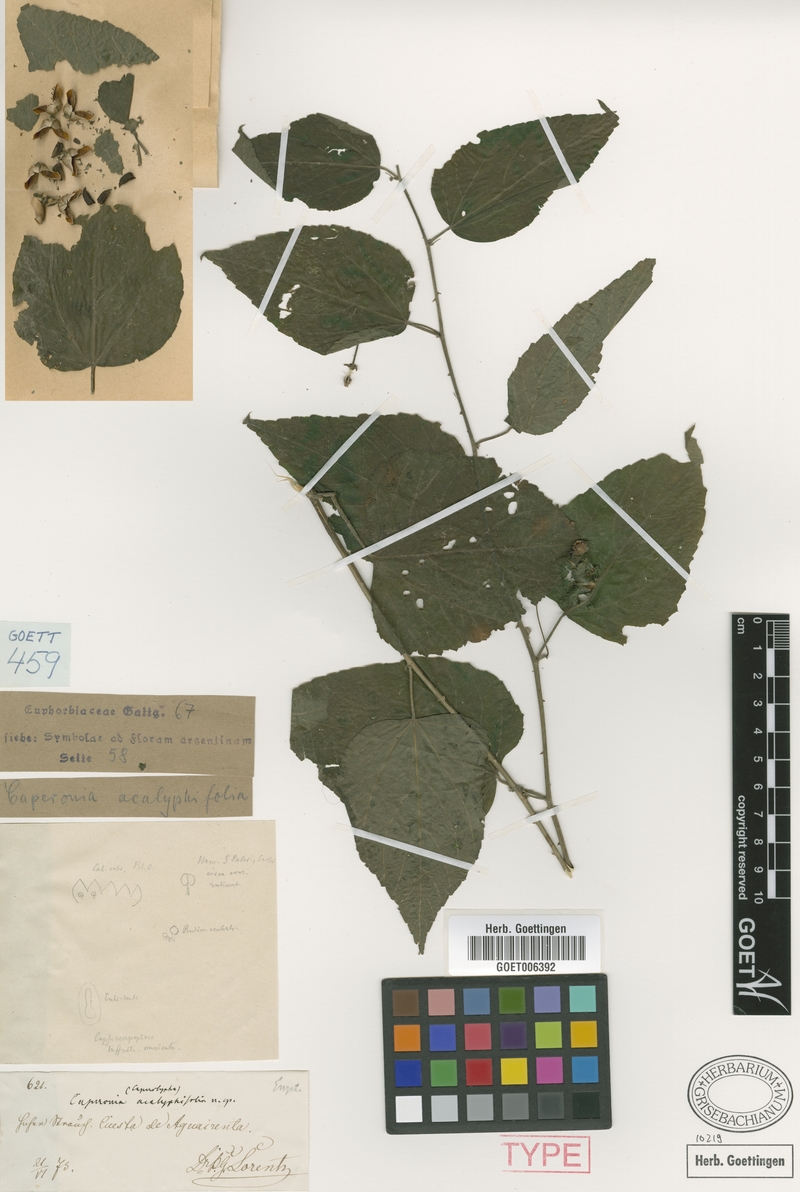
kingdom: Plantae
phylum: Tracheophyta
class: Magnoliopsida
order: Malvales
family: Malvaceae
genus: Byttneria
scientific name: Byttneria tucumanensis
